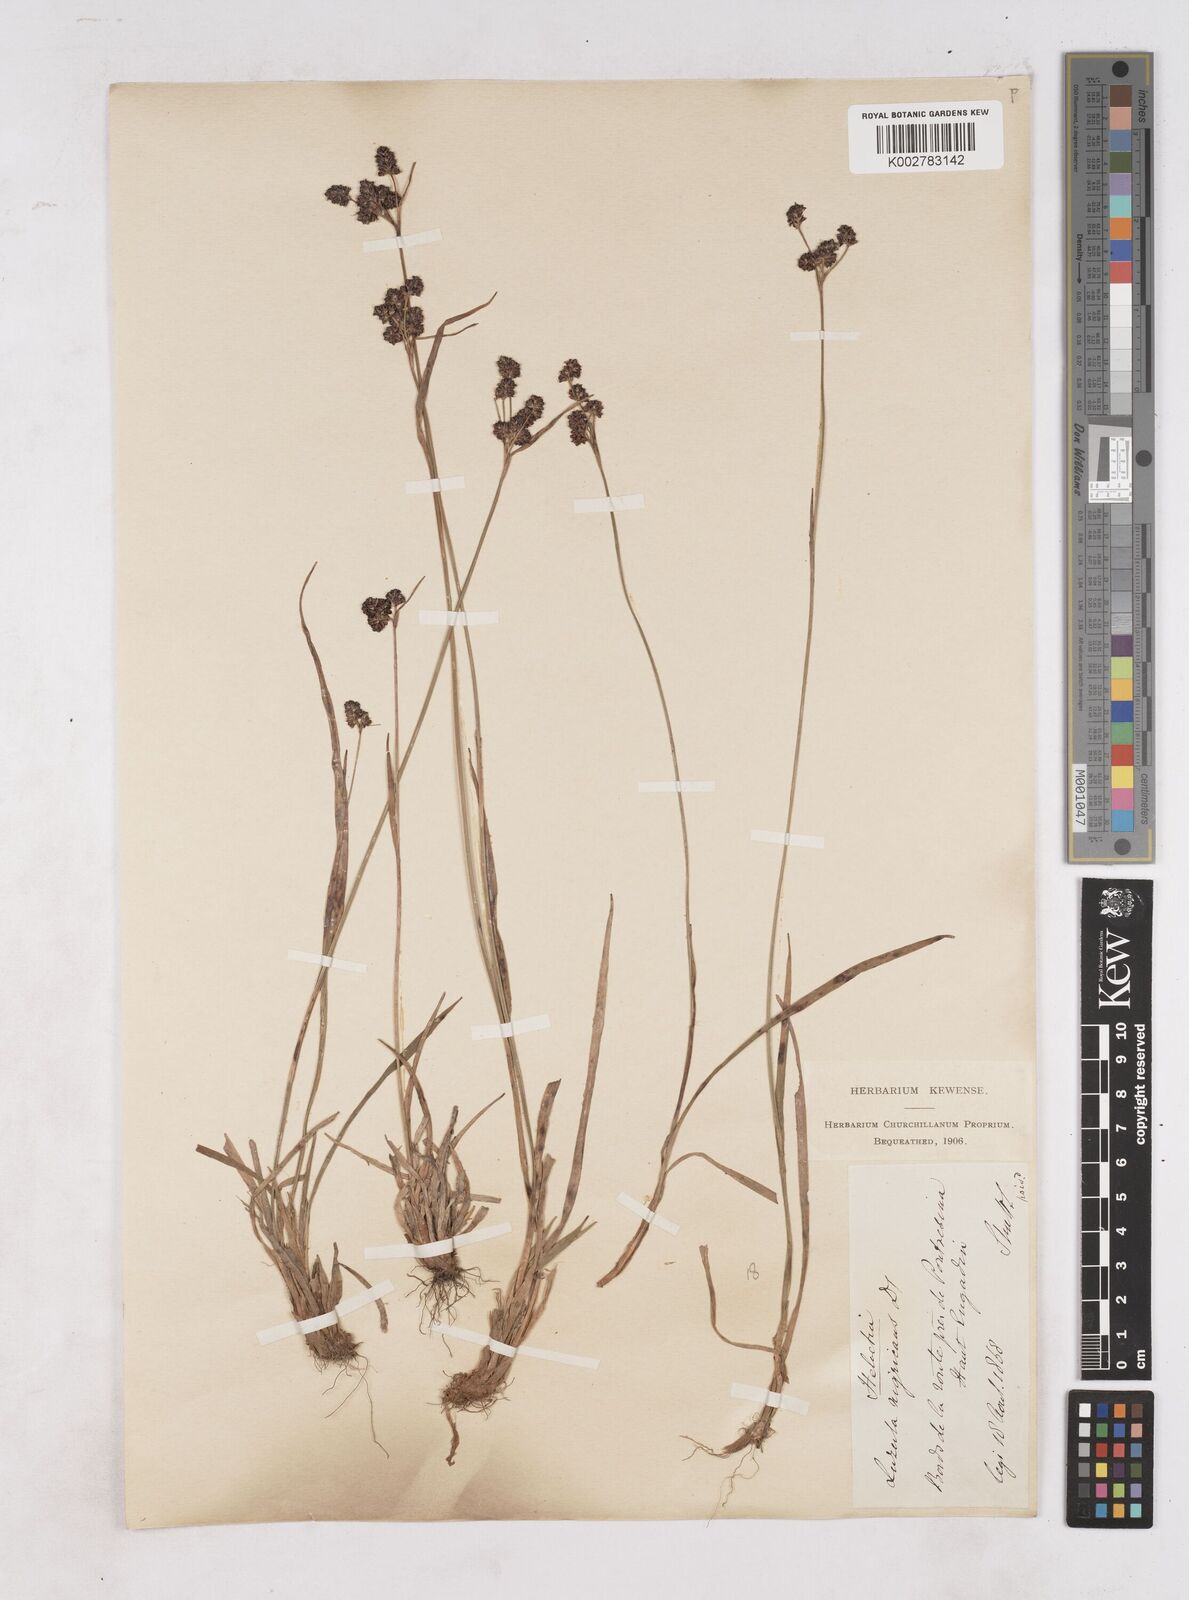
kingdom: Plantae
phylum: Tracheophyta
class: Liliopsida
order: Poales
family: Juncaceae
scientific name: Juncaceae
